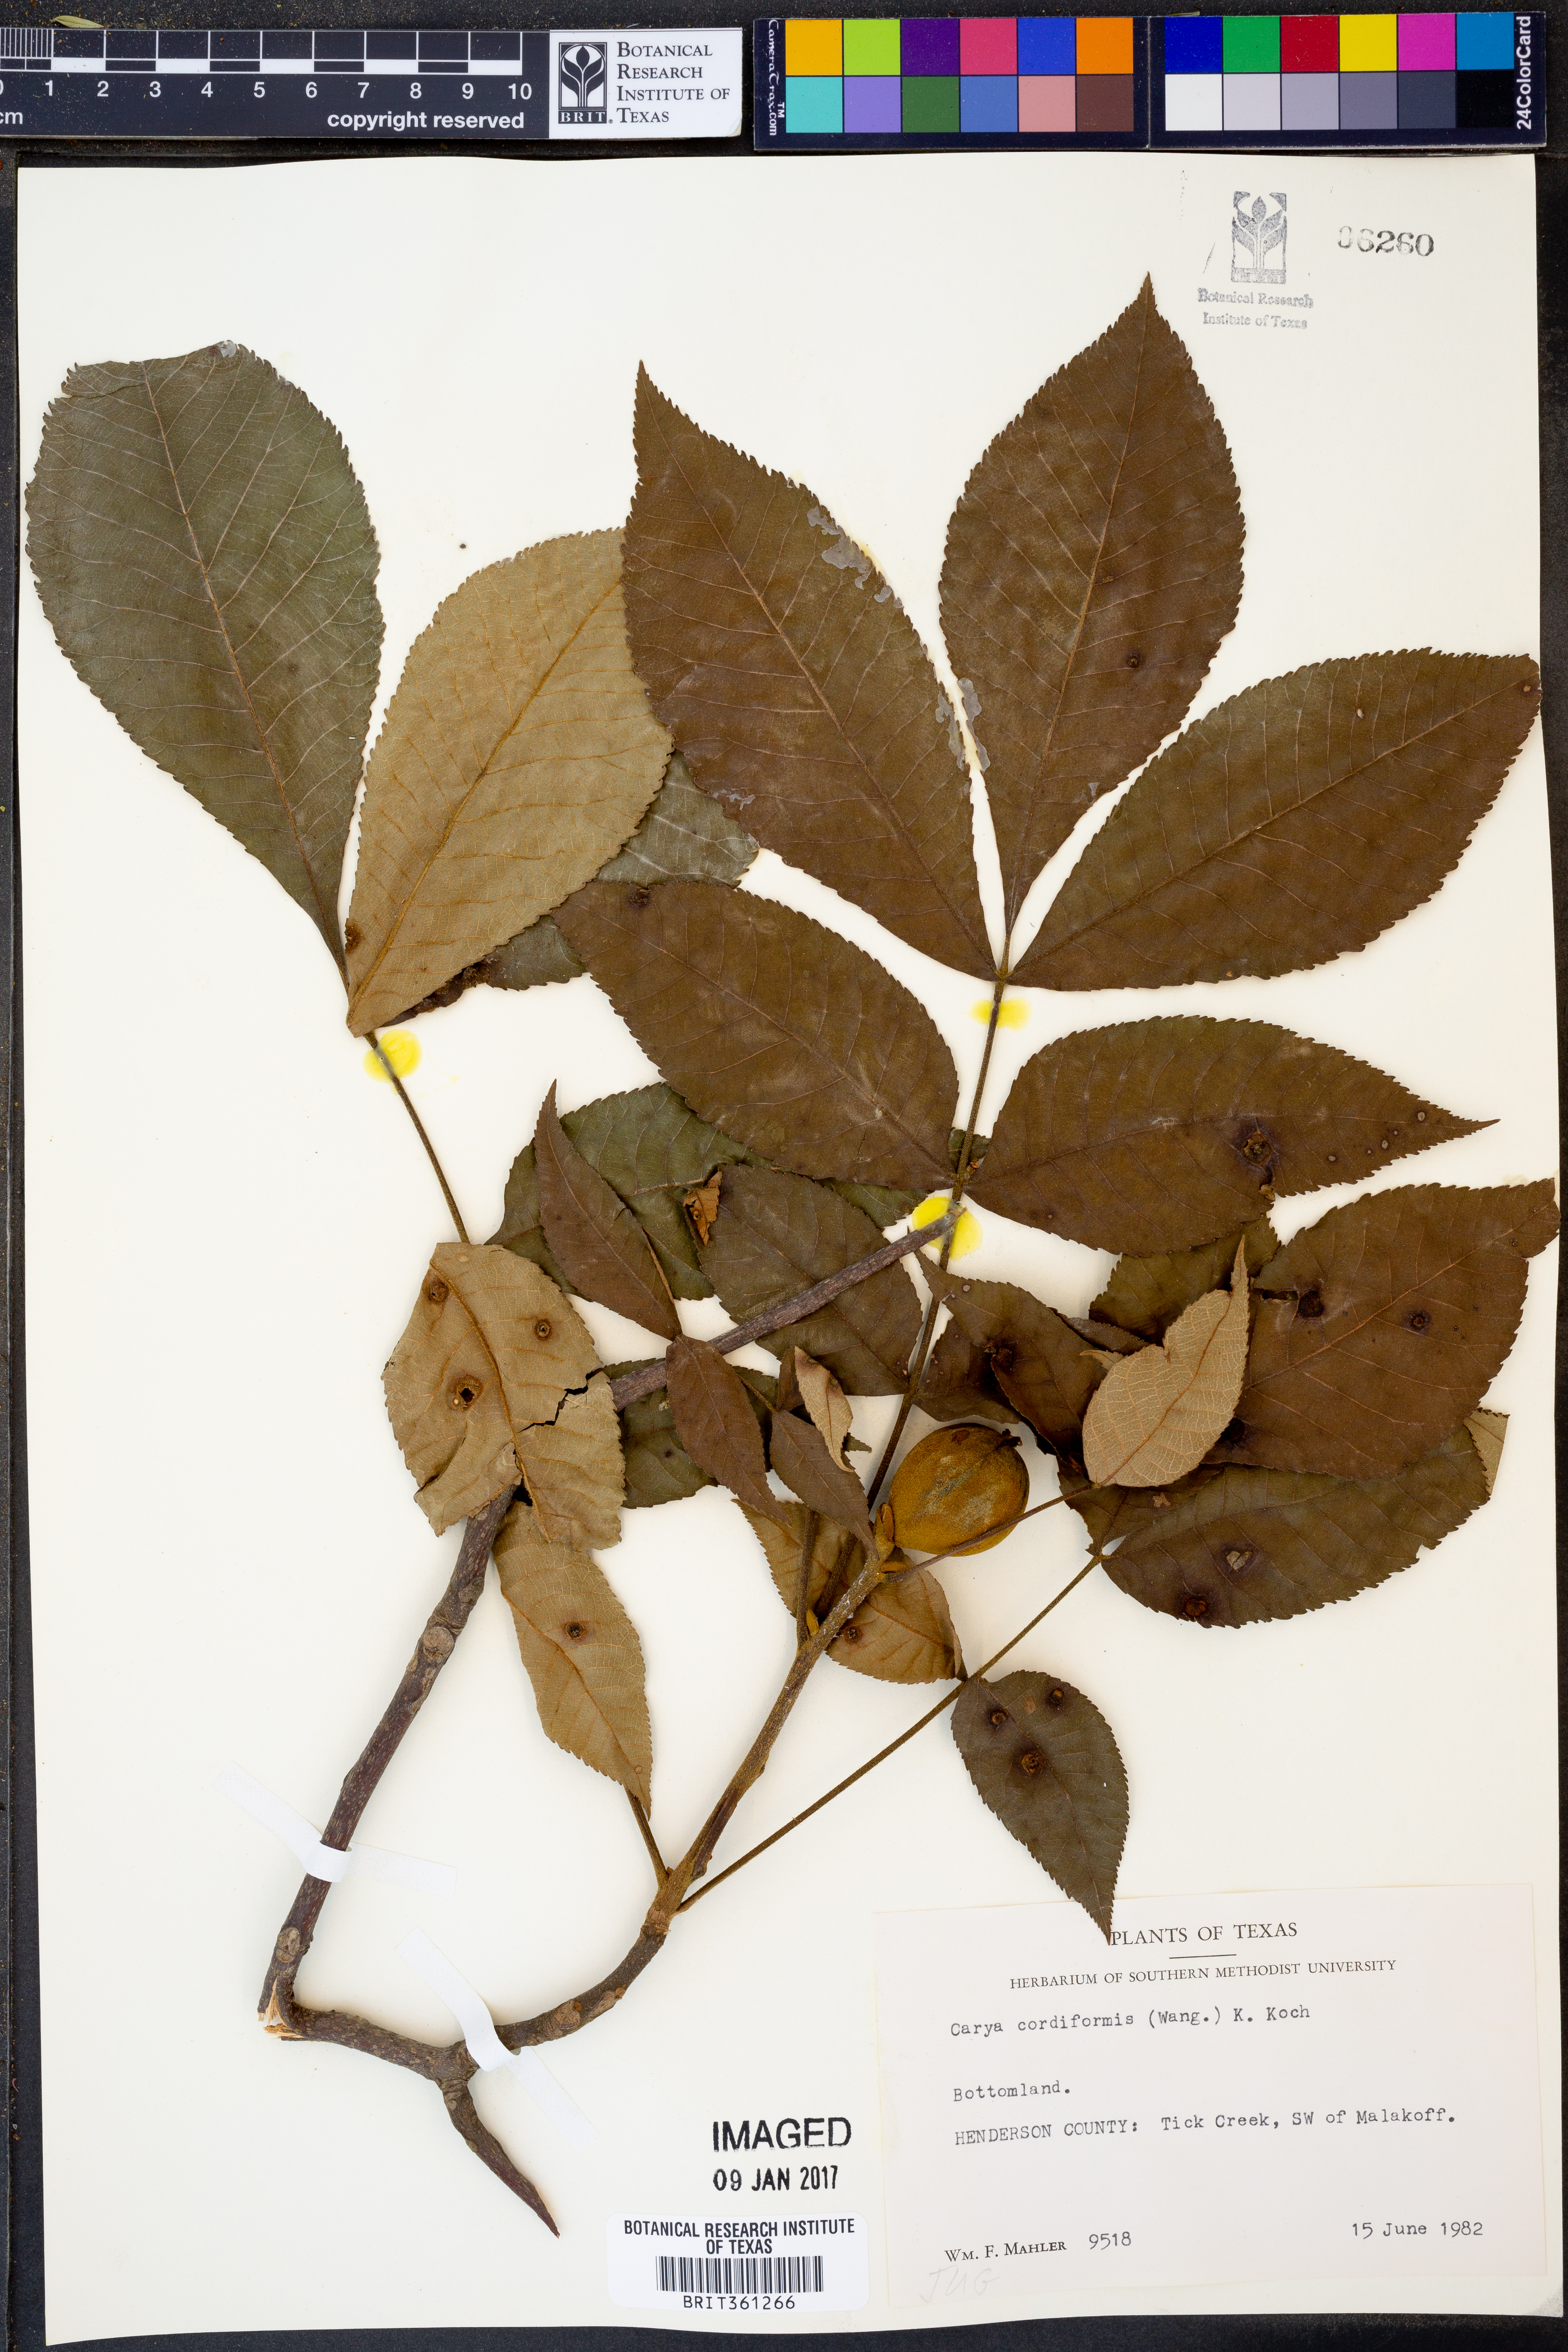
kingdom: Plantae
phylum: Tracheophyta
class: Magnoliopsida
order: Fagales
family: Juglandaceae
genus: Carya
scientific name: Carya cordiformis
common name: Bitternut hickory
